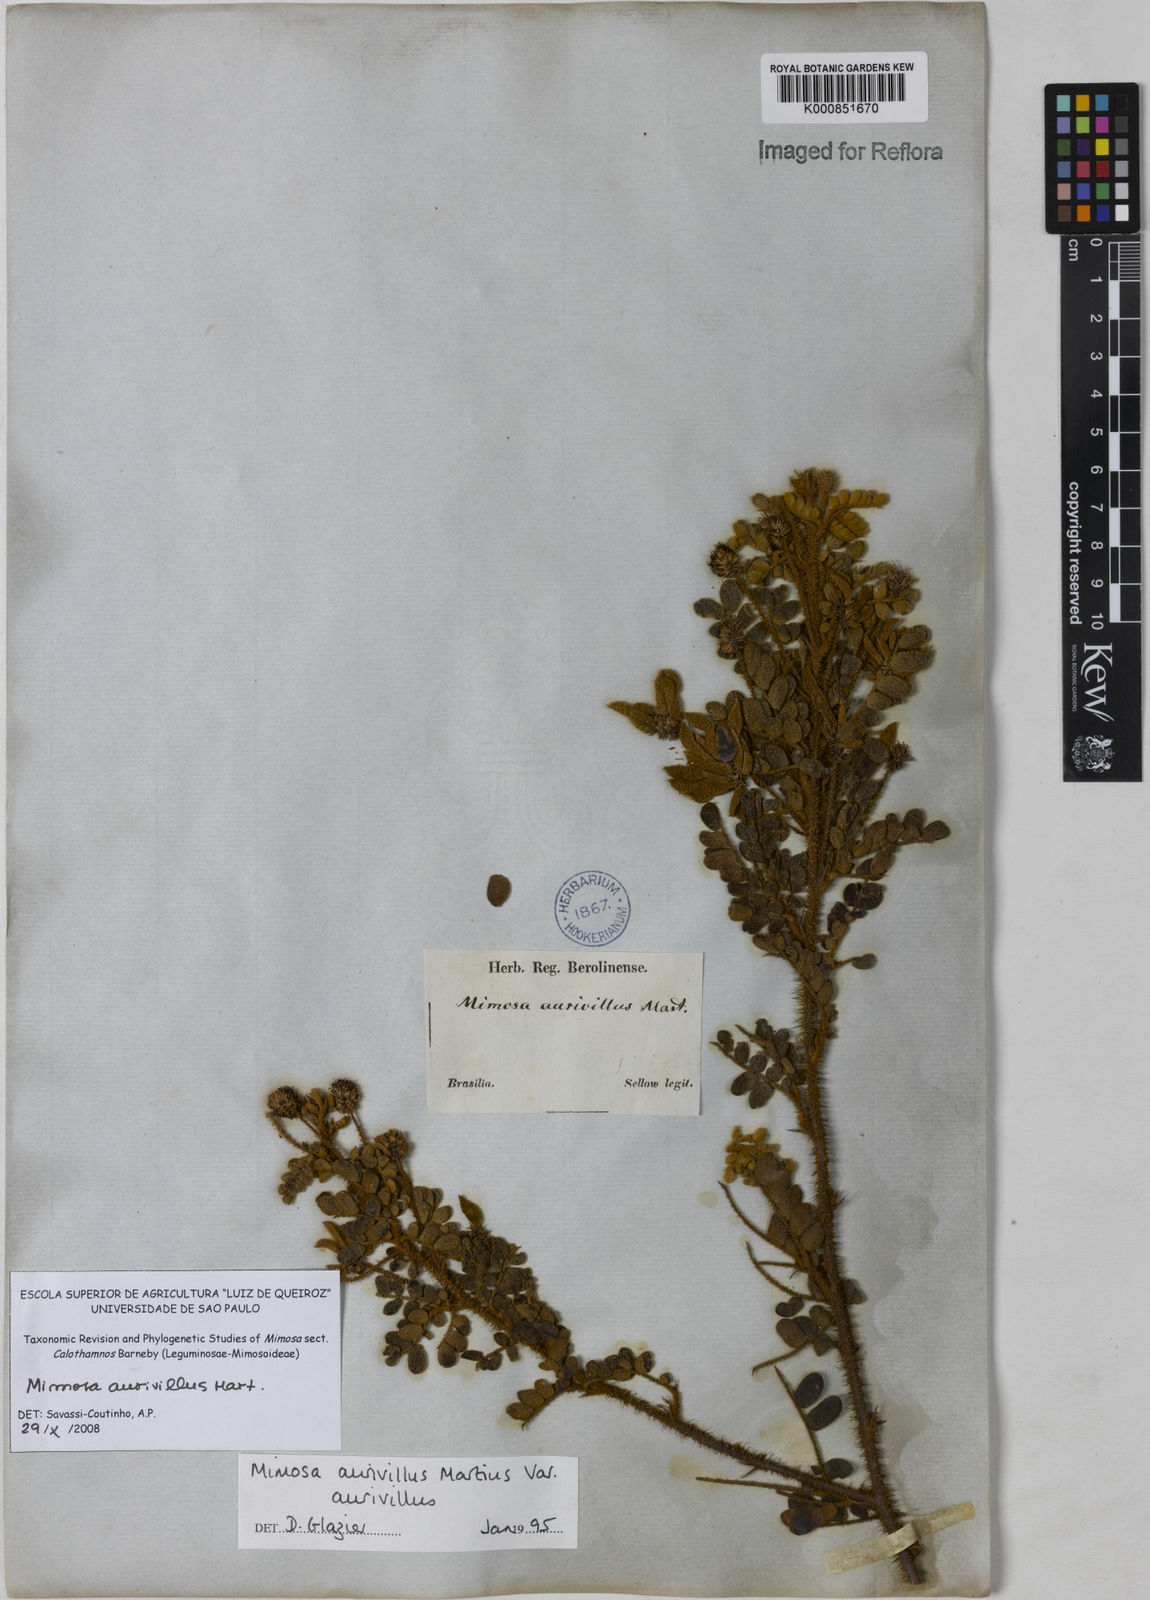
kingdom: Plantae
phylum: Tracheophyta
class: Magnoliopsida
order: Fabales
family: Fabaceae
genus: Mimosa
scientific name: Mimosa aurivillus
